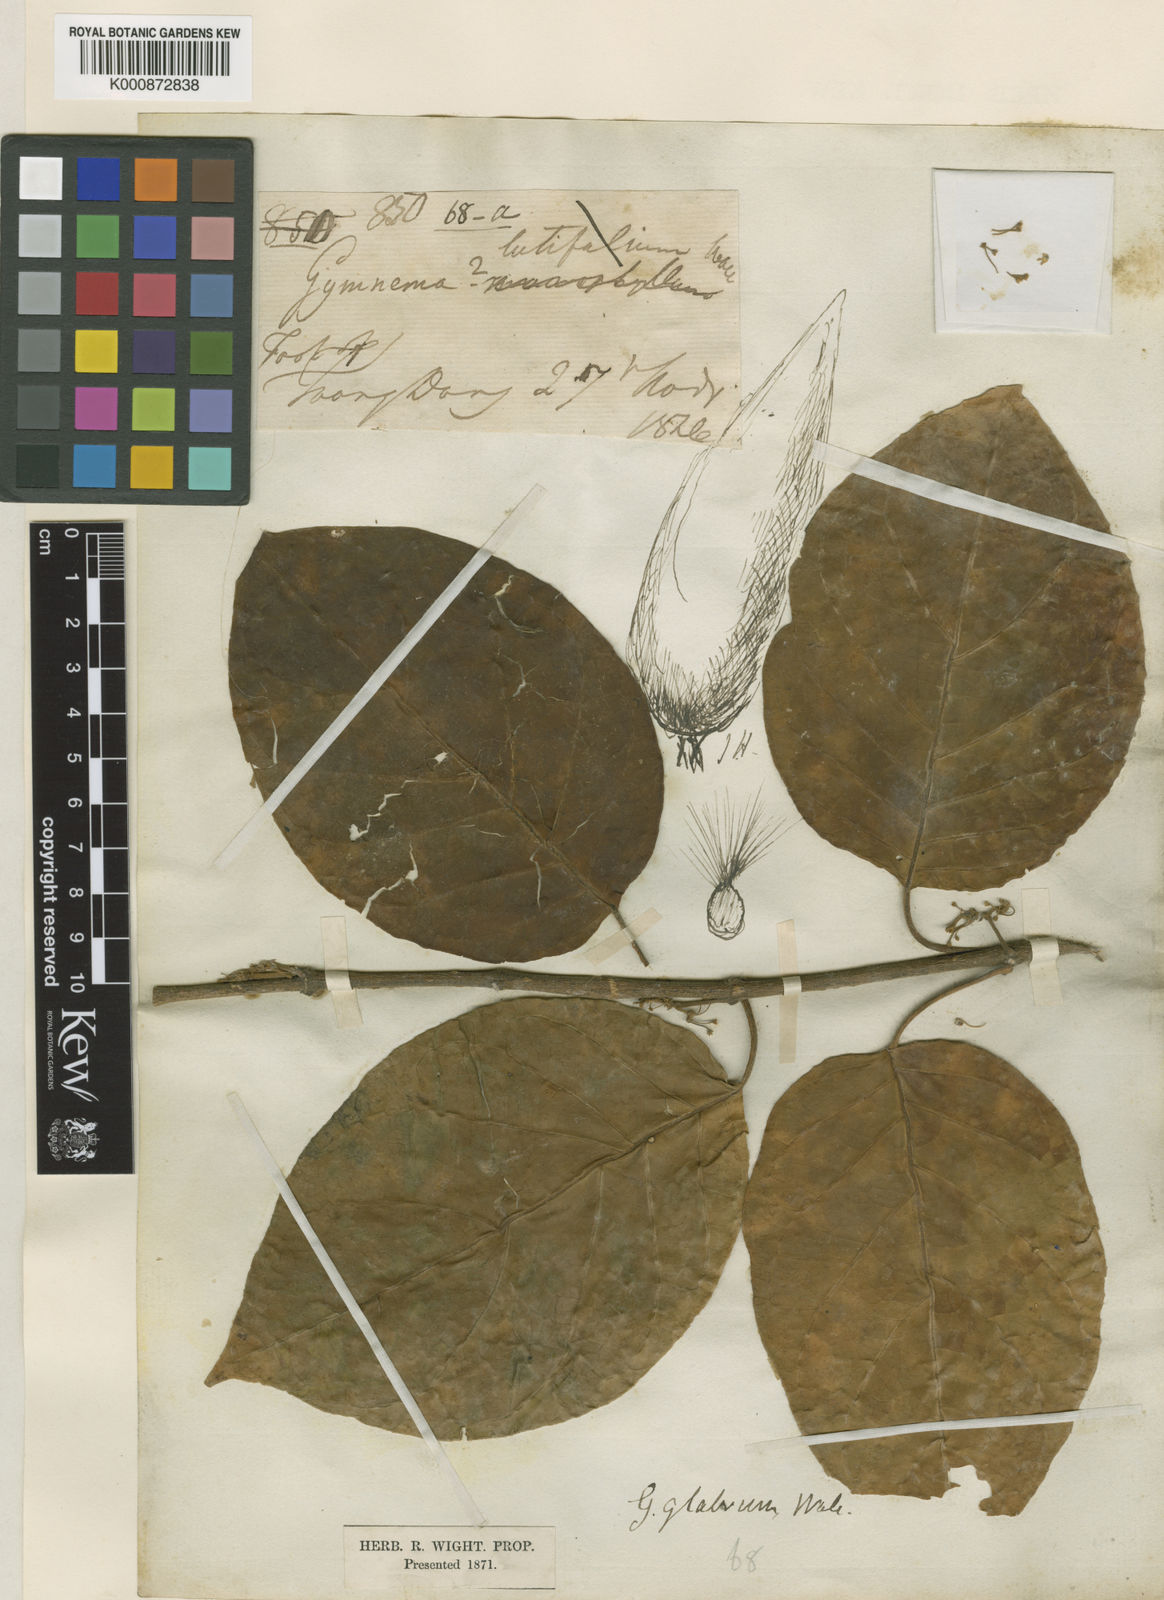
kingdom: Plantae
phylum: Tracheophyta
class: Magnoliopsida
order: Gentianales
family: Apocynaceae
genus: Gymnema
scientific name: Gymnema glabrum
